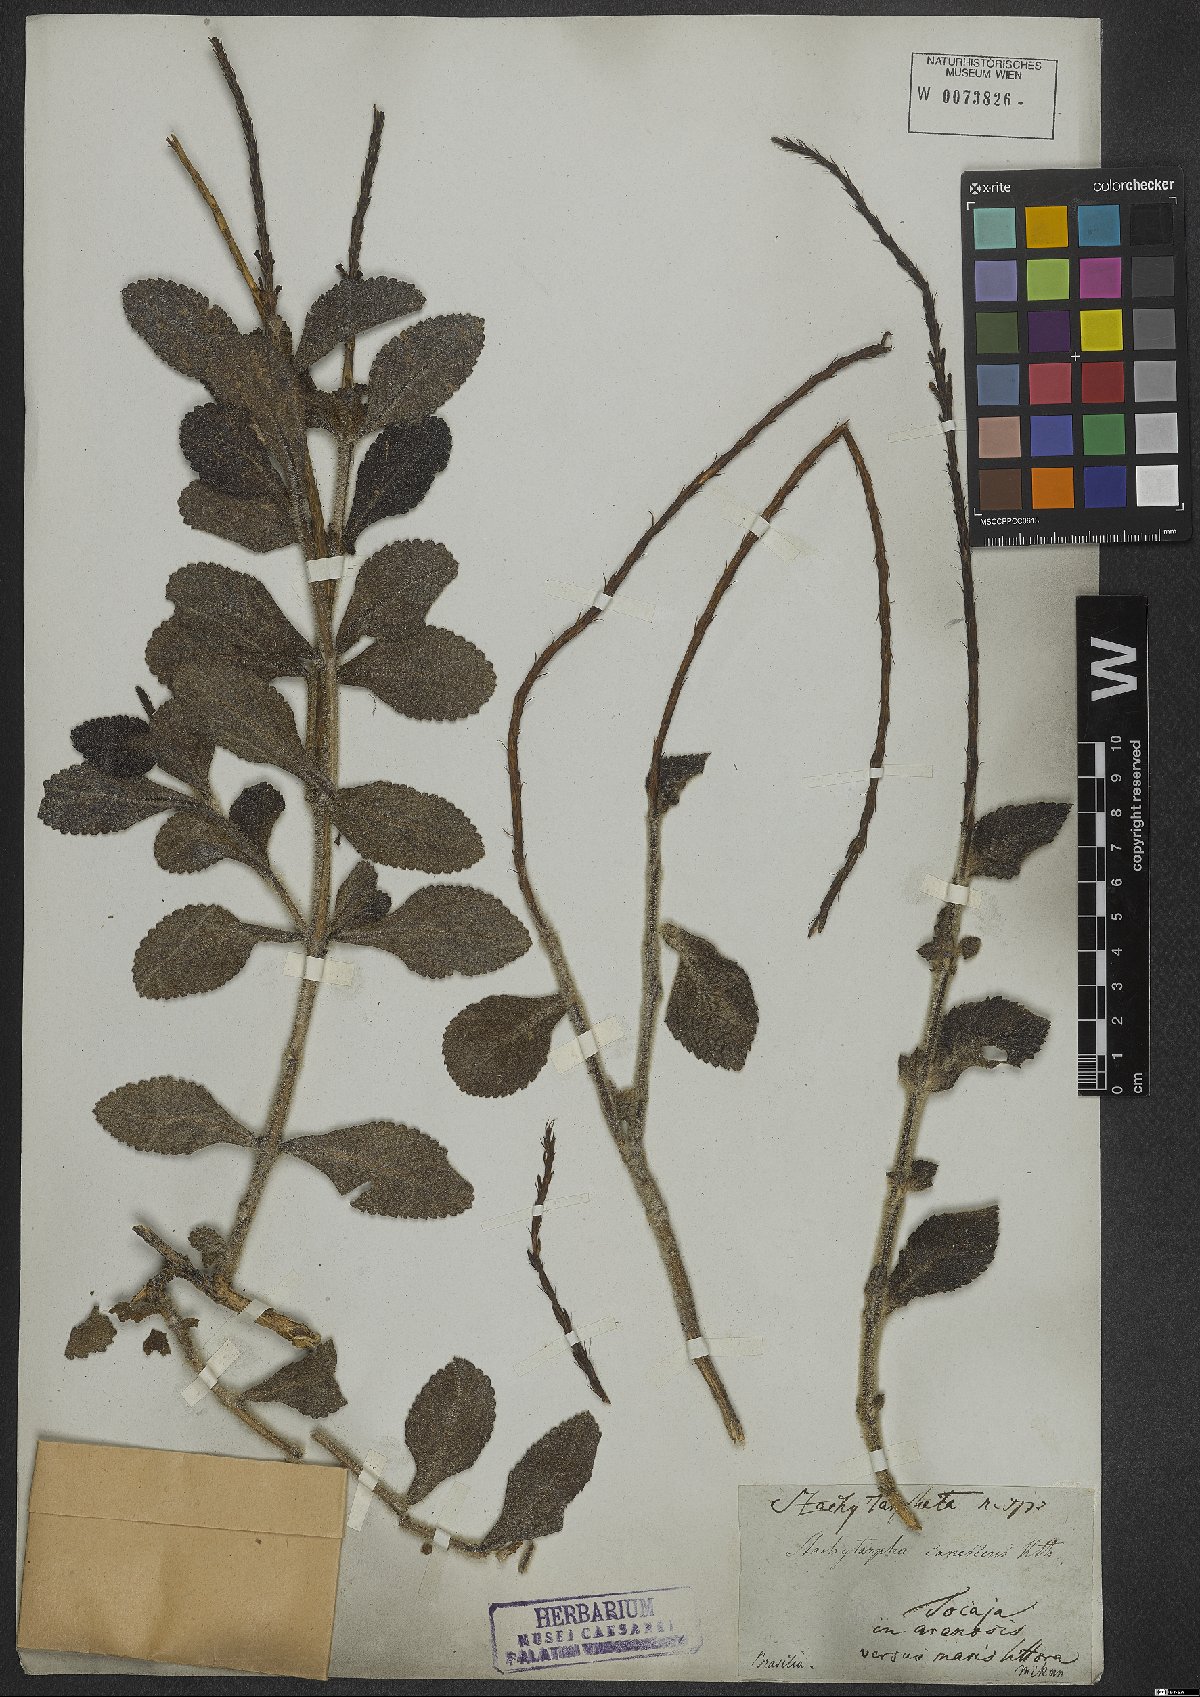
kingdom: Plantae
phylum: Tracheophyta
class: Magnoliopsida
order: Lamiales
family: Verbenaceae
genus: Stachytarpheta
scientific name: Stachytarpheta canescens
